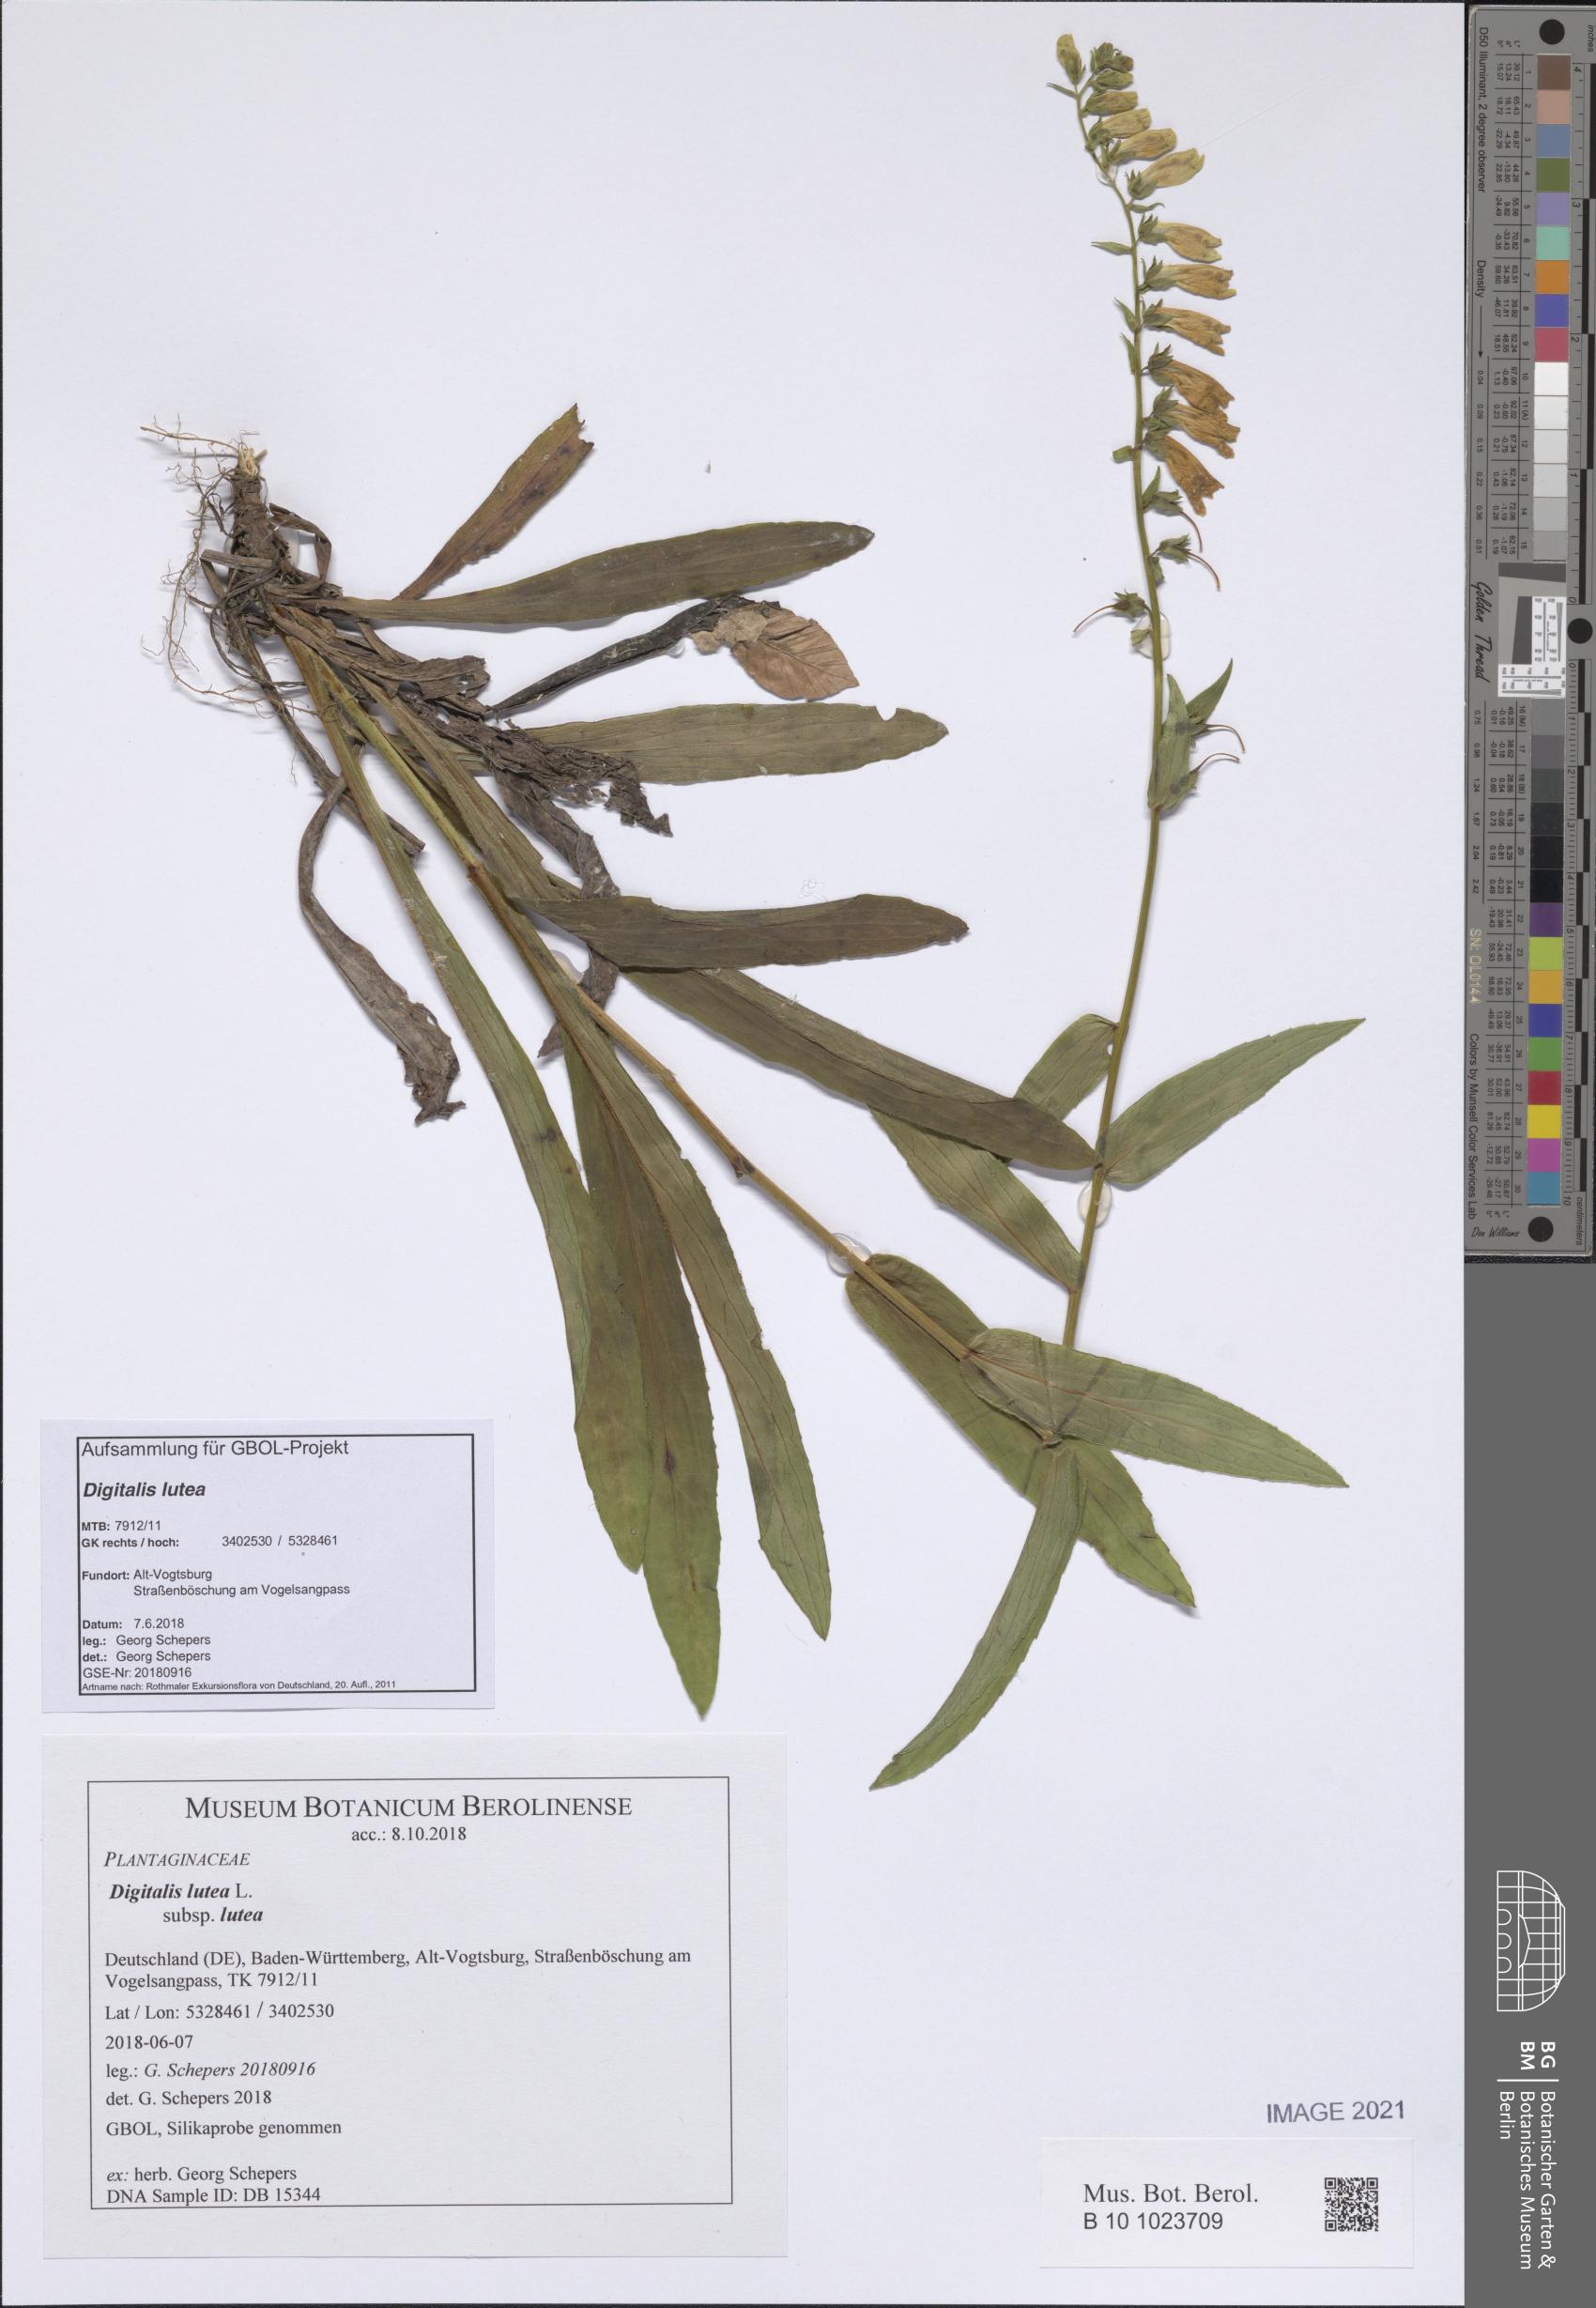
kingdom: Plantae
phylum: Tracheophyta
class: Magnoliopsida
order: Lamiales
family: Plantaginaceae
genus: Digitalis
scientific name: Digitalis lutea
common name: Straw foxglove
